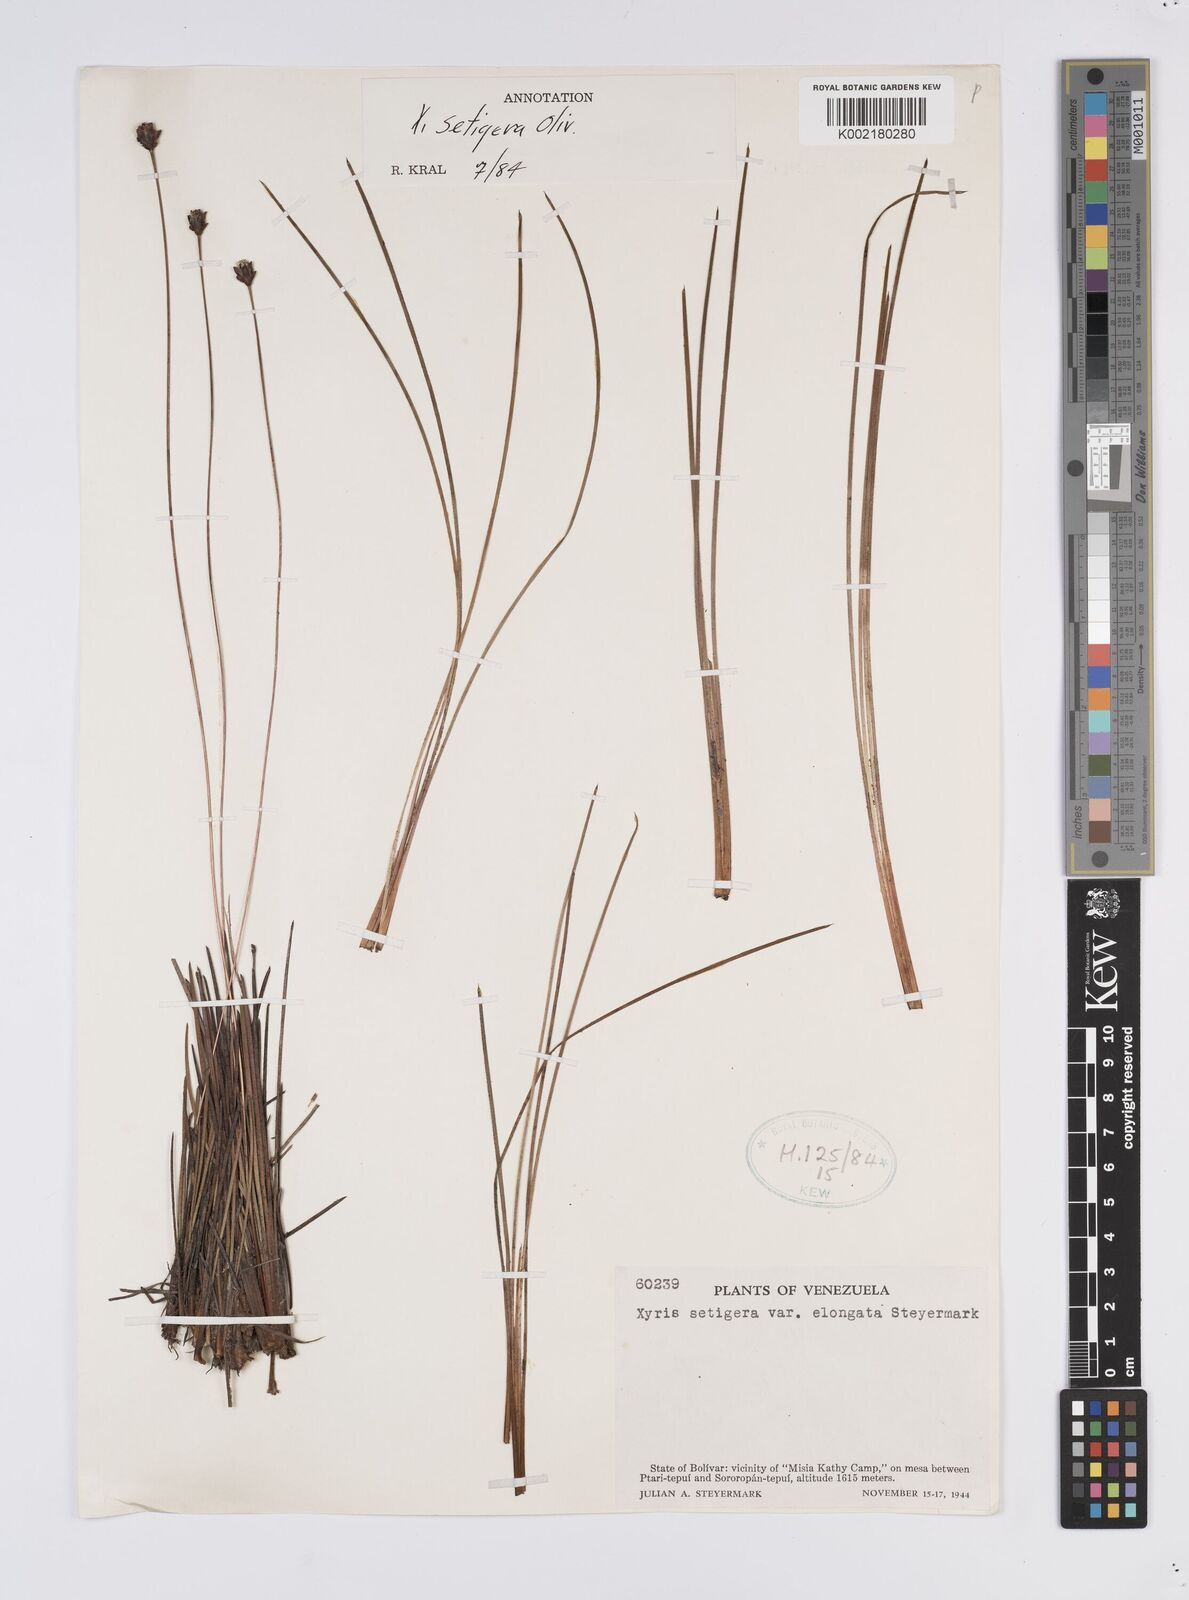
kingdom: Plantae
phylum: Tracheophyta
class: Liliopsida
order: Poales
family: Xyridaceae
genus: Xyris
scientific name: Xyris setigera
